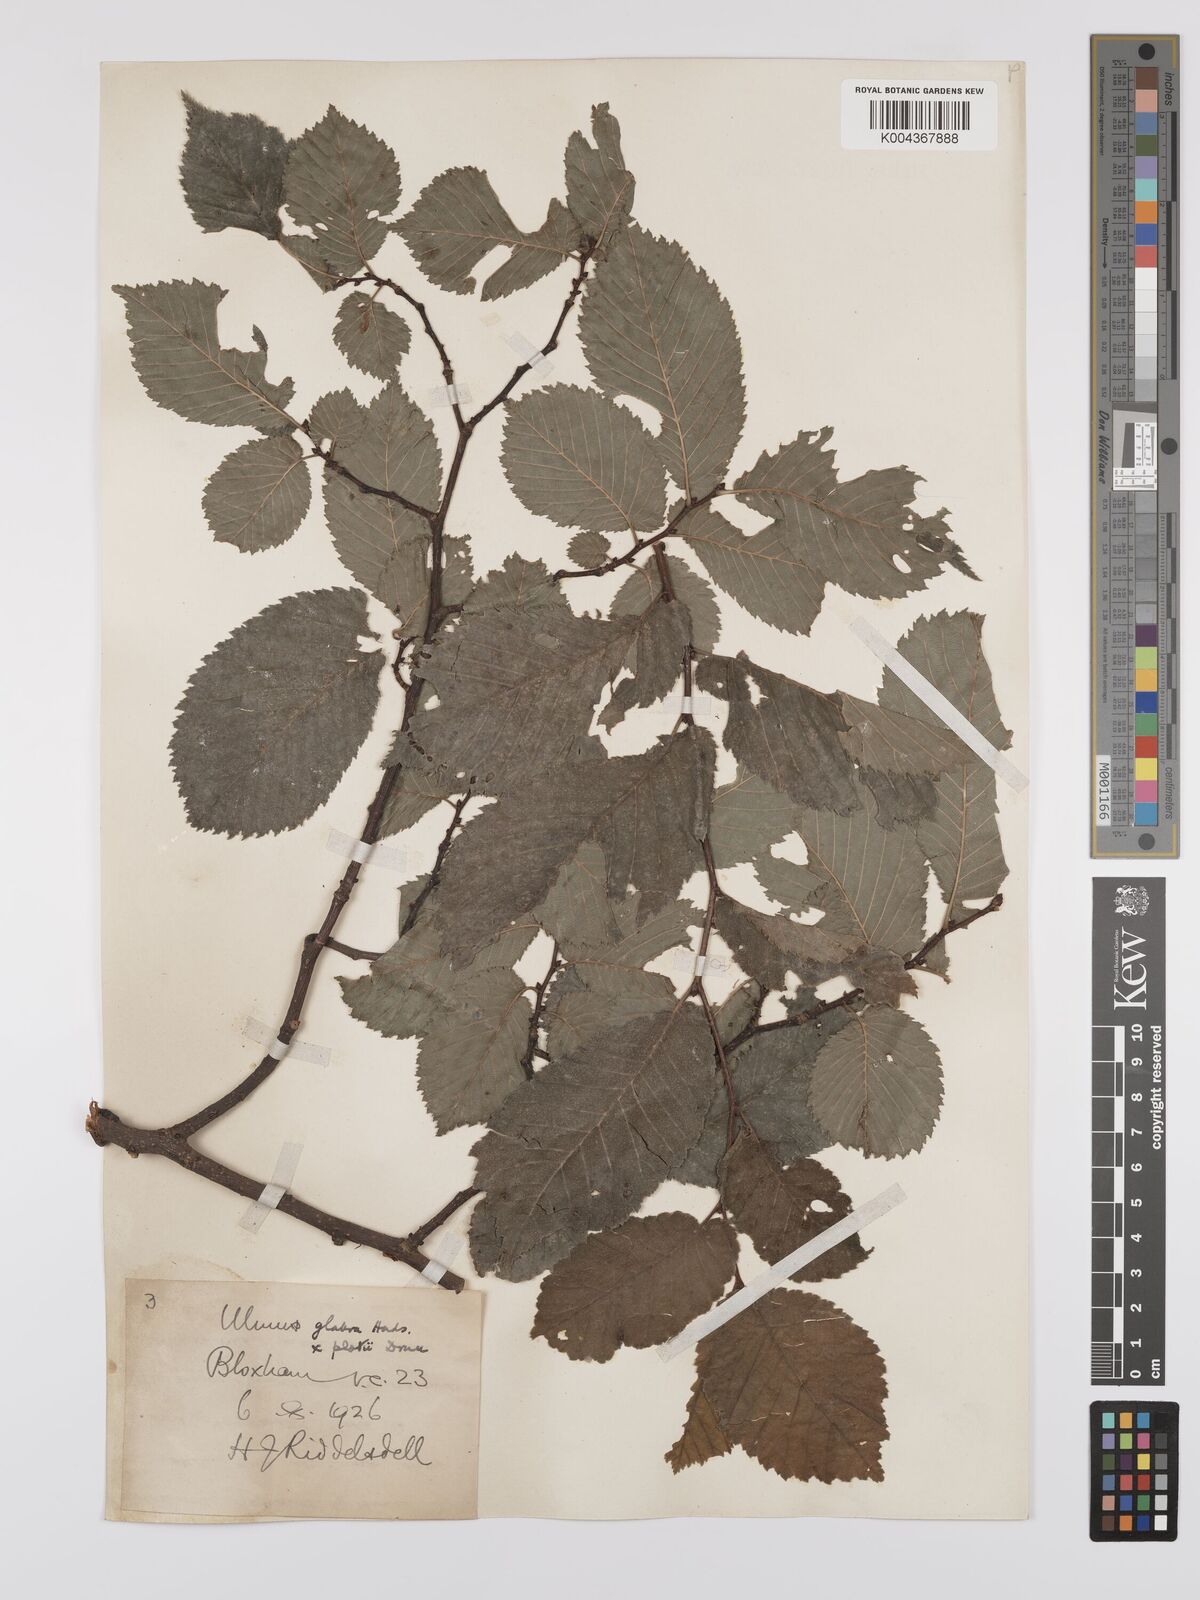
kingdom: Plantae
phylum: Tracheophyta
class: Magnoliopsida
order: Rosales
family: Ulmaceae
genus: Ulmus
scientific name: Ulmus glabra
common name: Wych elm
